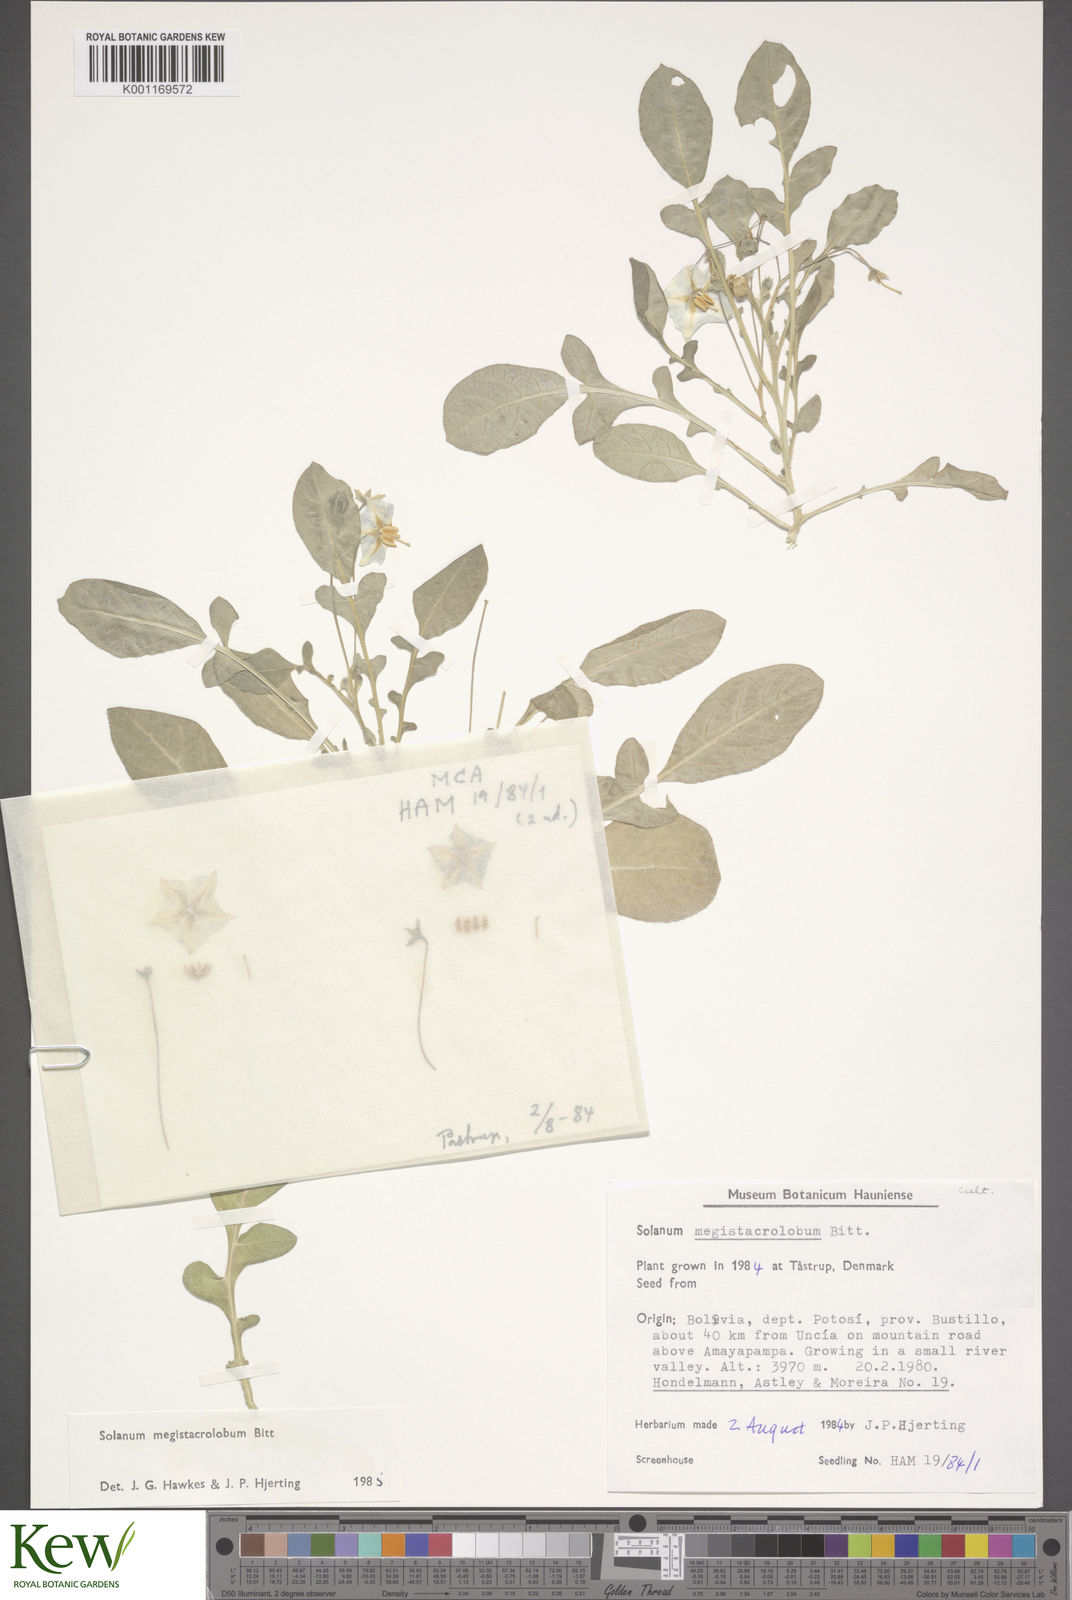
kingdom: Plantae
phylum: Tracheophyta
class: Magnoliopsida
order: Solanales
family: Solanaceae
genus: Solanum
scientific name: Solanum boliviense
